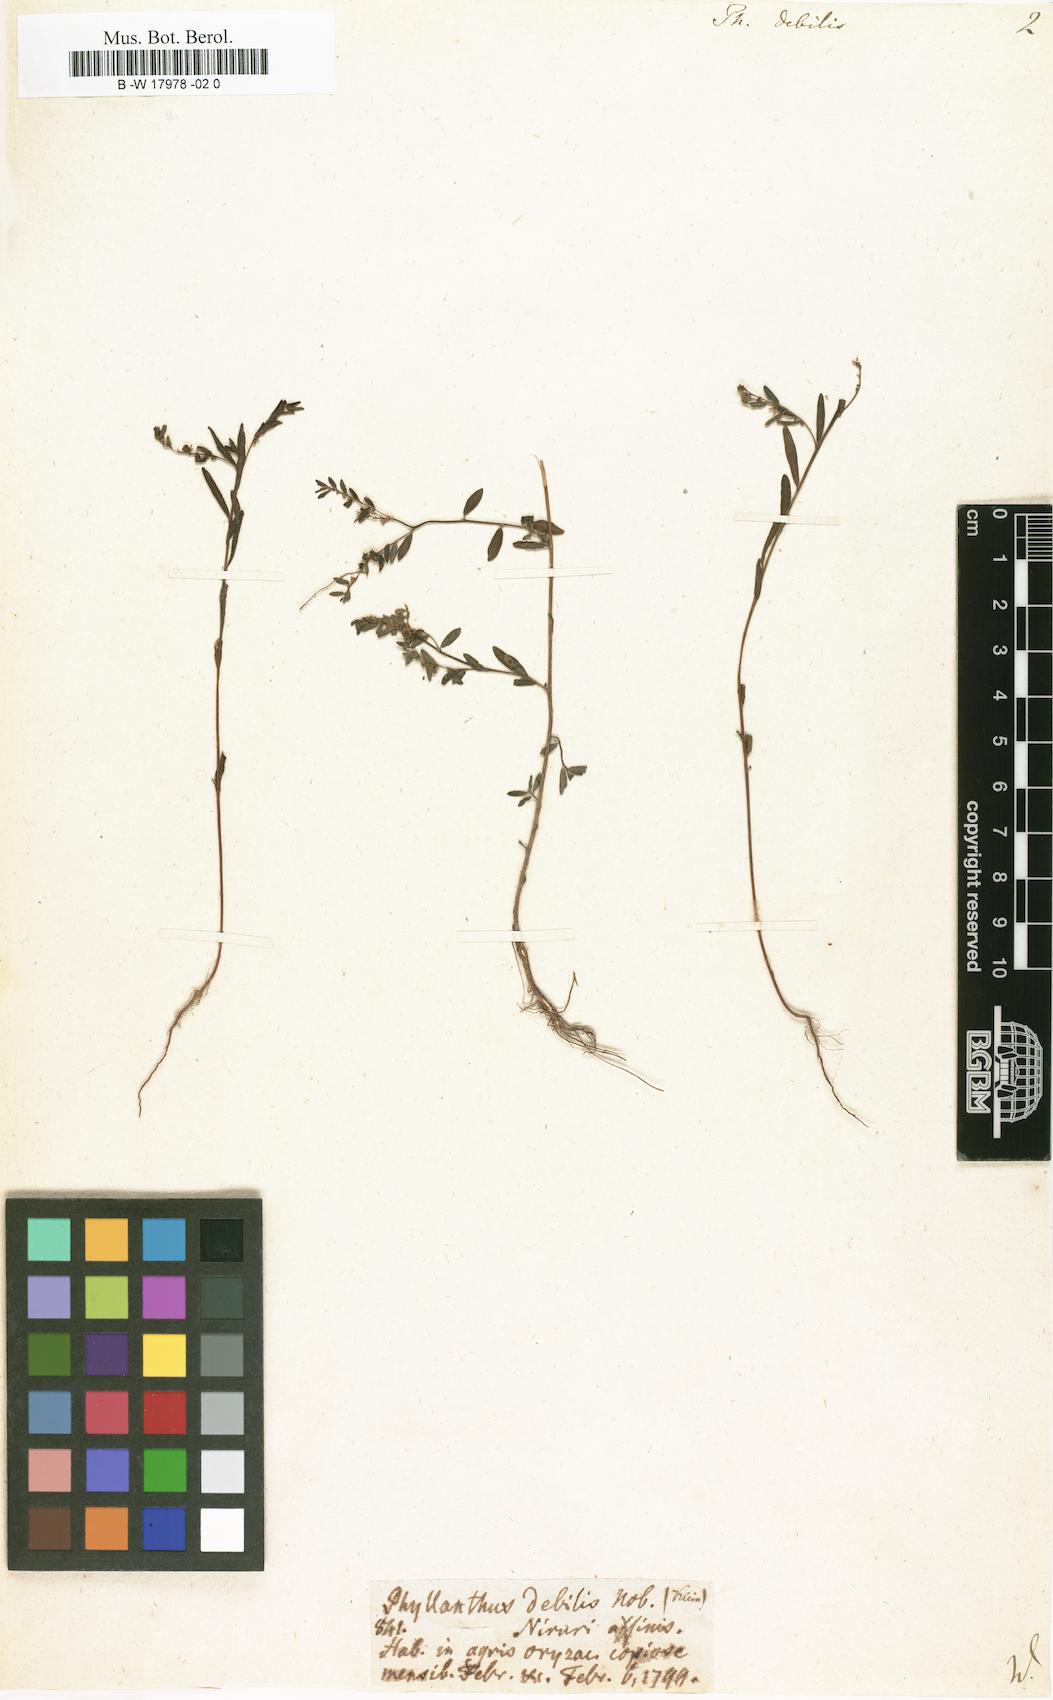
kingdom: Plantae
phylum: Tracheophyta
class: Magnoliopsida
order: Malpighiales
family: Phyllanthaceae
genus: Phyllanthus
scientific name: Phyllanthus debilis
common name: Niruri
